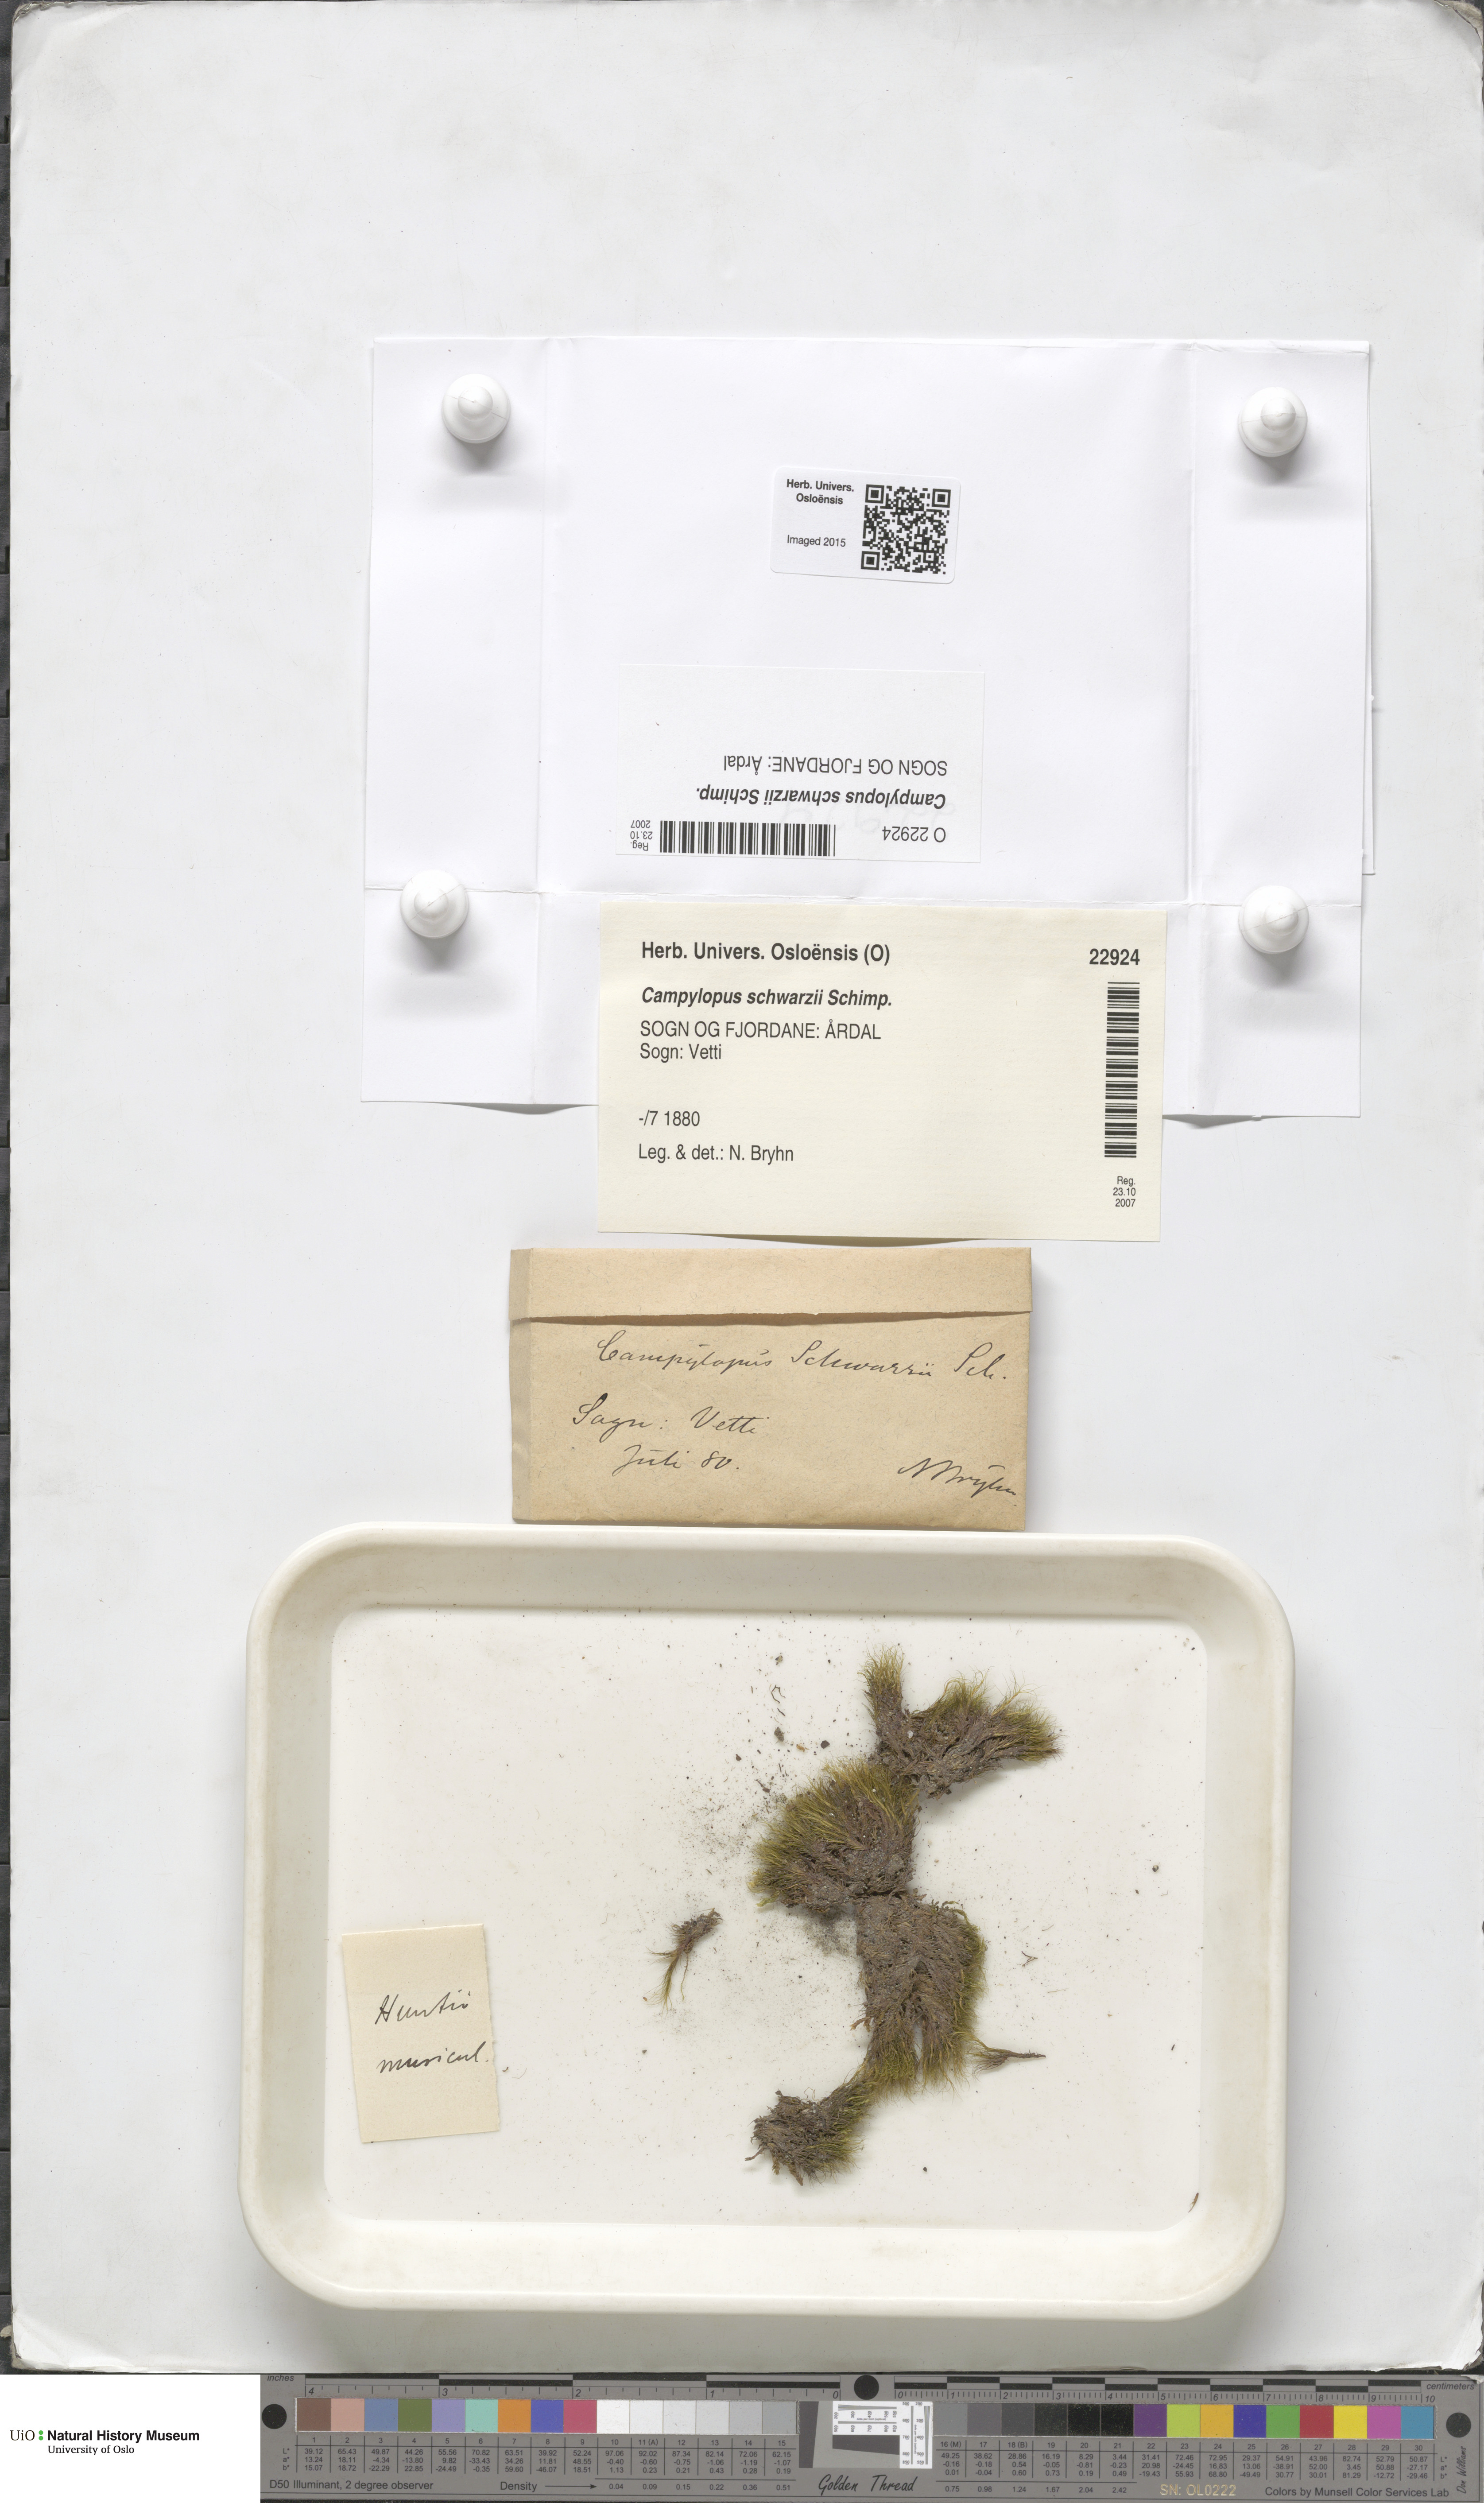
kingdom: Plantae
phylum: Bryophyta
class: Bryopsida
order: Dicranales
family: Leucobryaceae
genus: Campylopus
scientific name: Campylopus gracilis
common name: Schwarz's swan-neck moss
